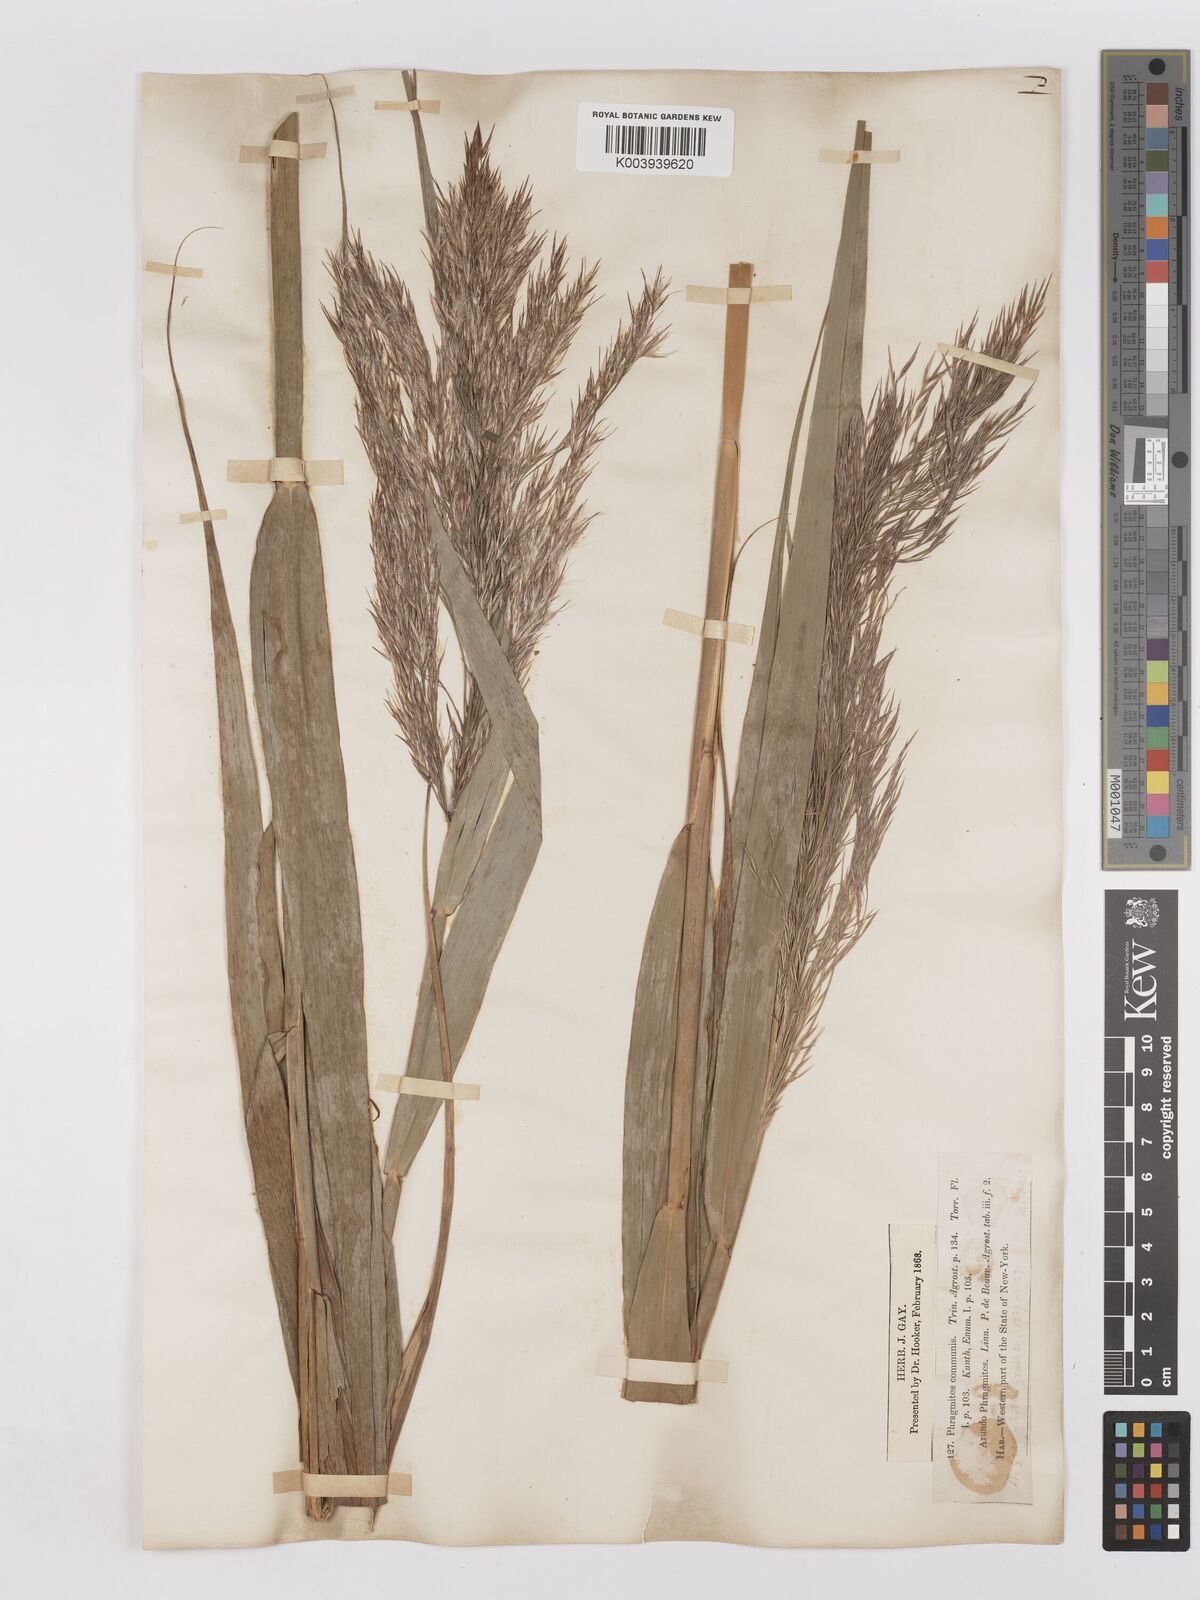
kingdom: Plantae
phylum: Tracheophyta
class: Liliopsida
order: Poales
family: Poaceae
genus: Phragmites
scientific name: Phragmites australis
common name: Common reed
